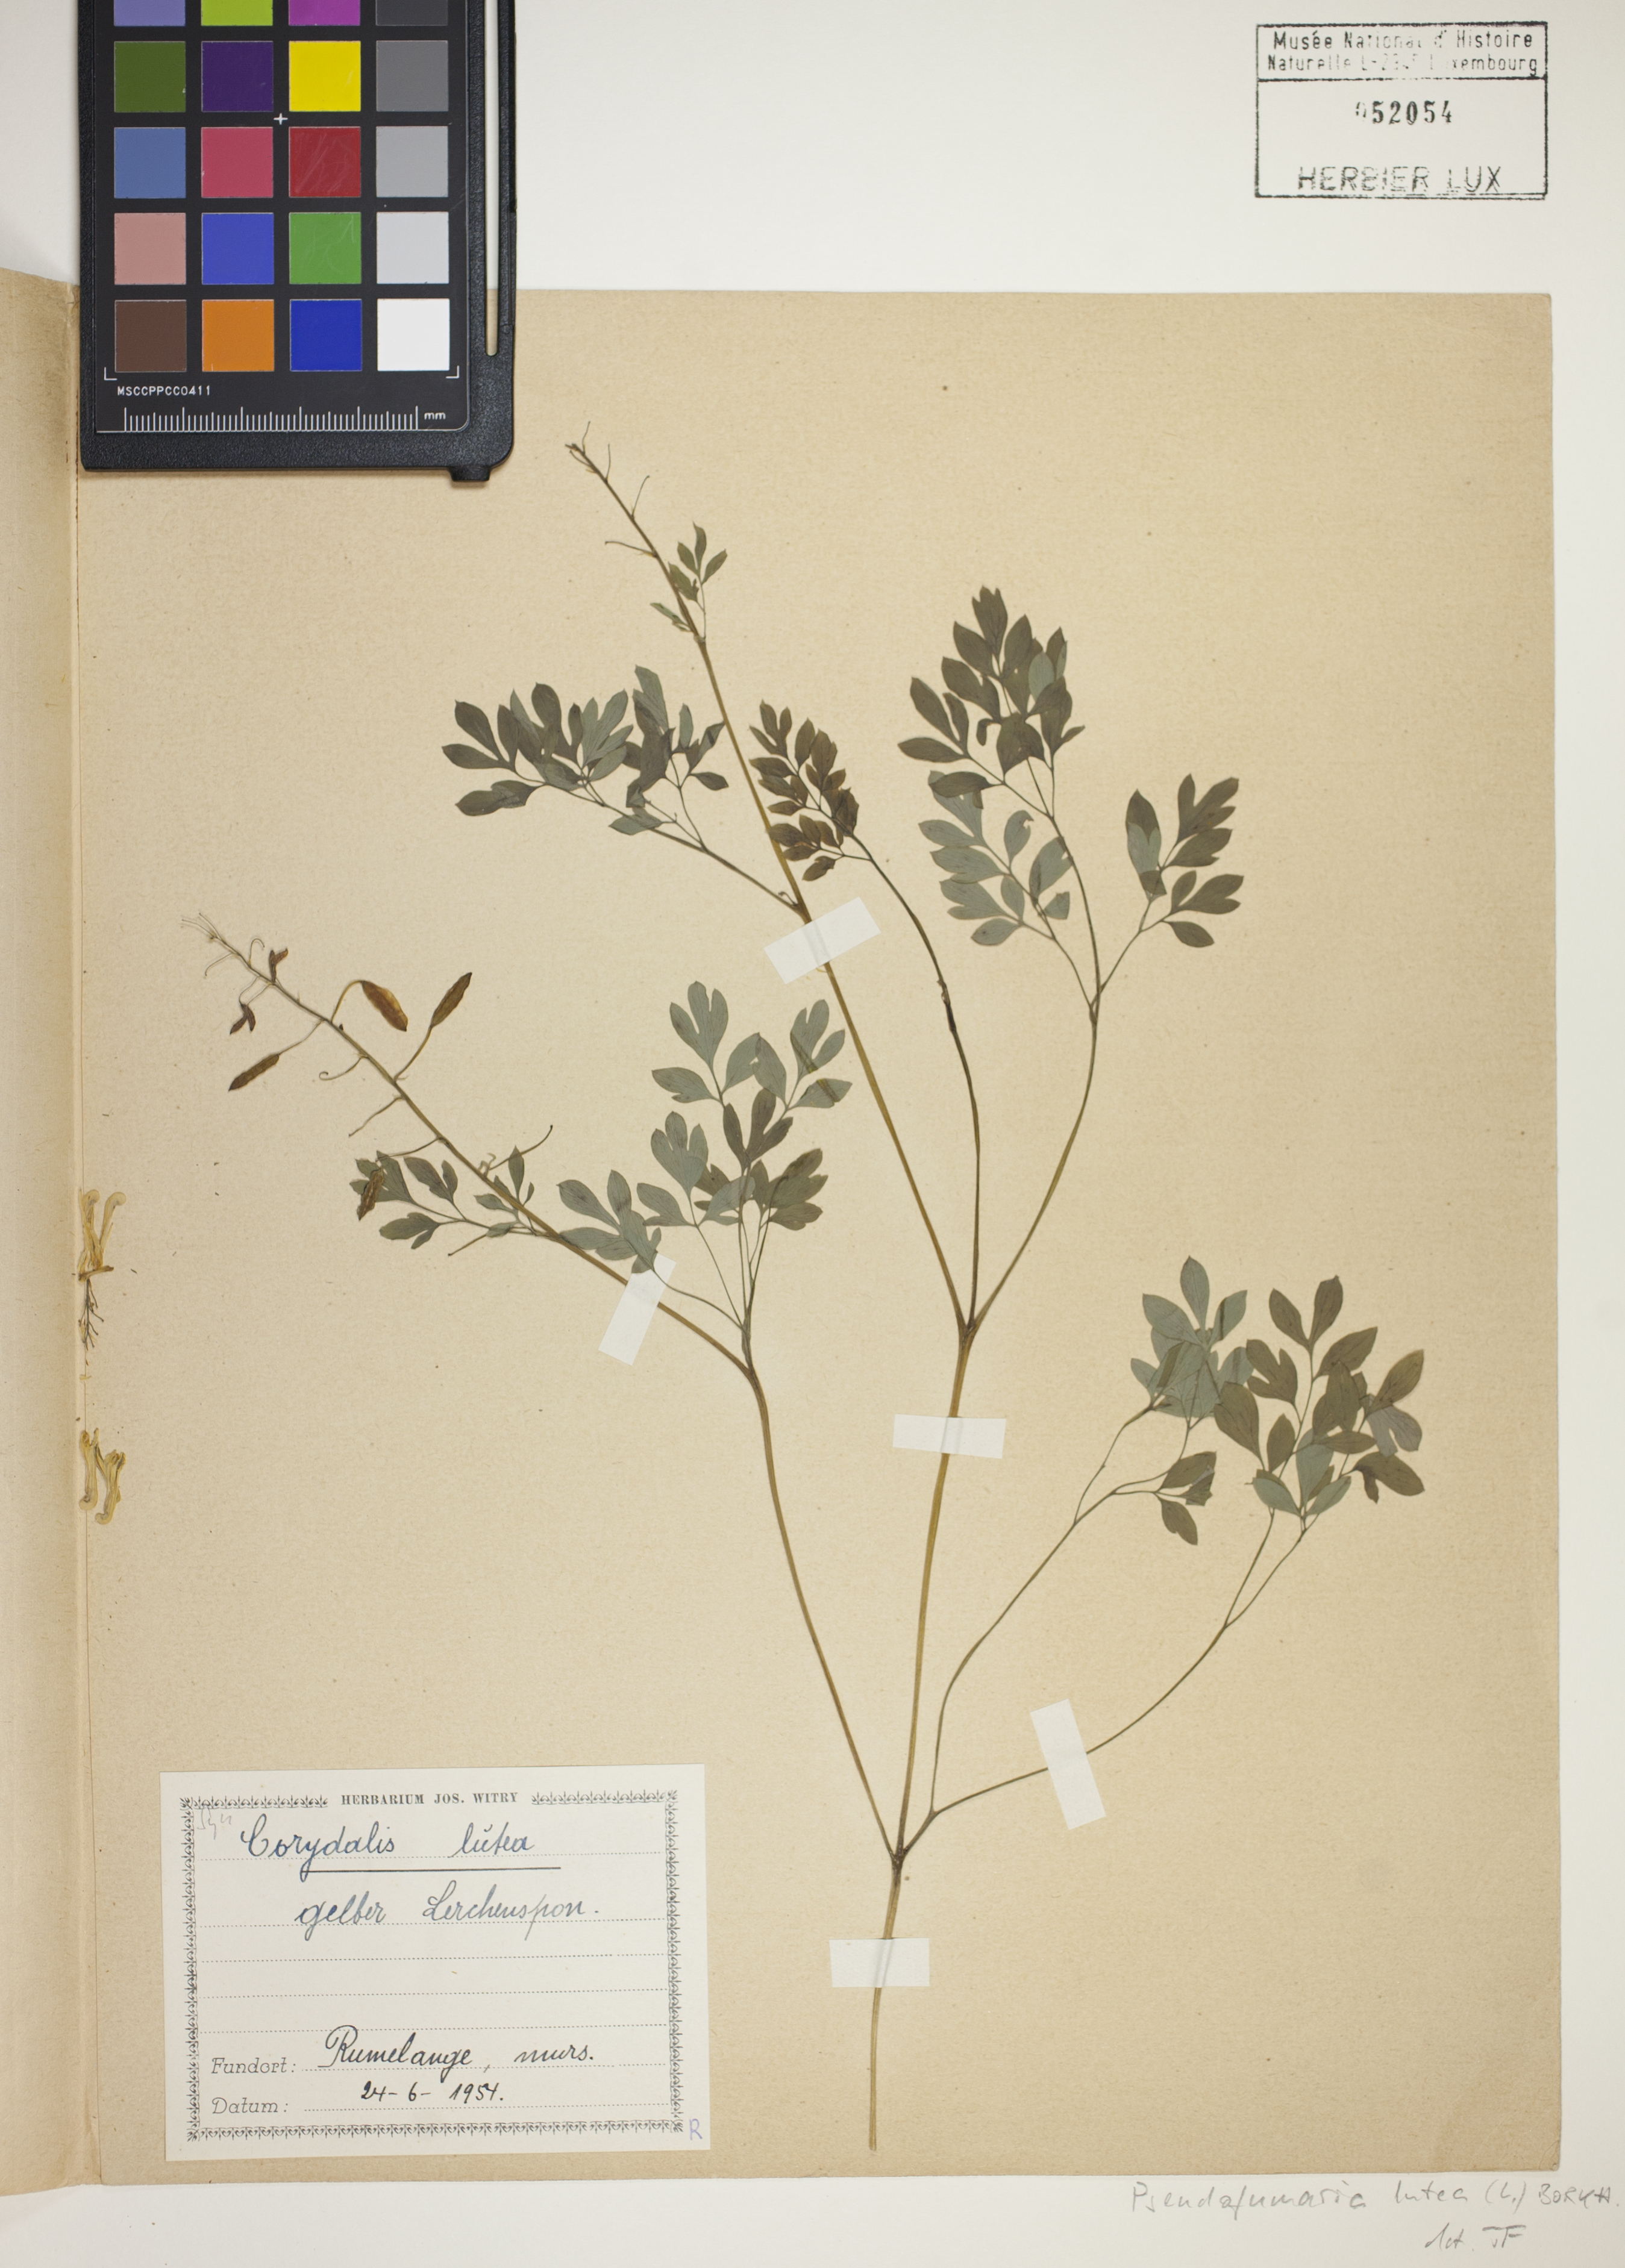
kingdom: Plantae
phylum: Tracheophyta
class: Magnoliopsida
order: Ranunculales
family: Papaveraceae
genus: Pseudofumaria
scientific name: Pseudofumaria lutea
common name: Yellow corydalis
